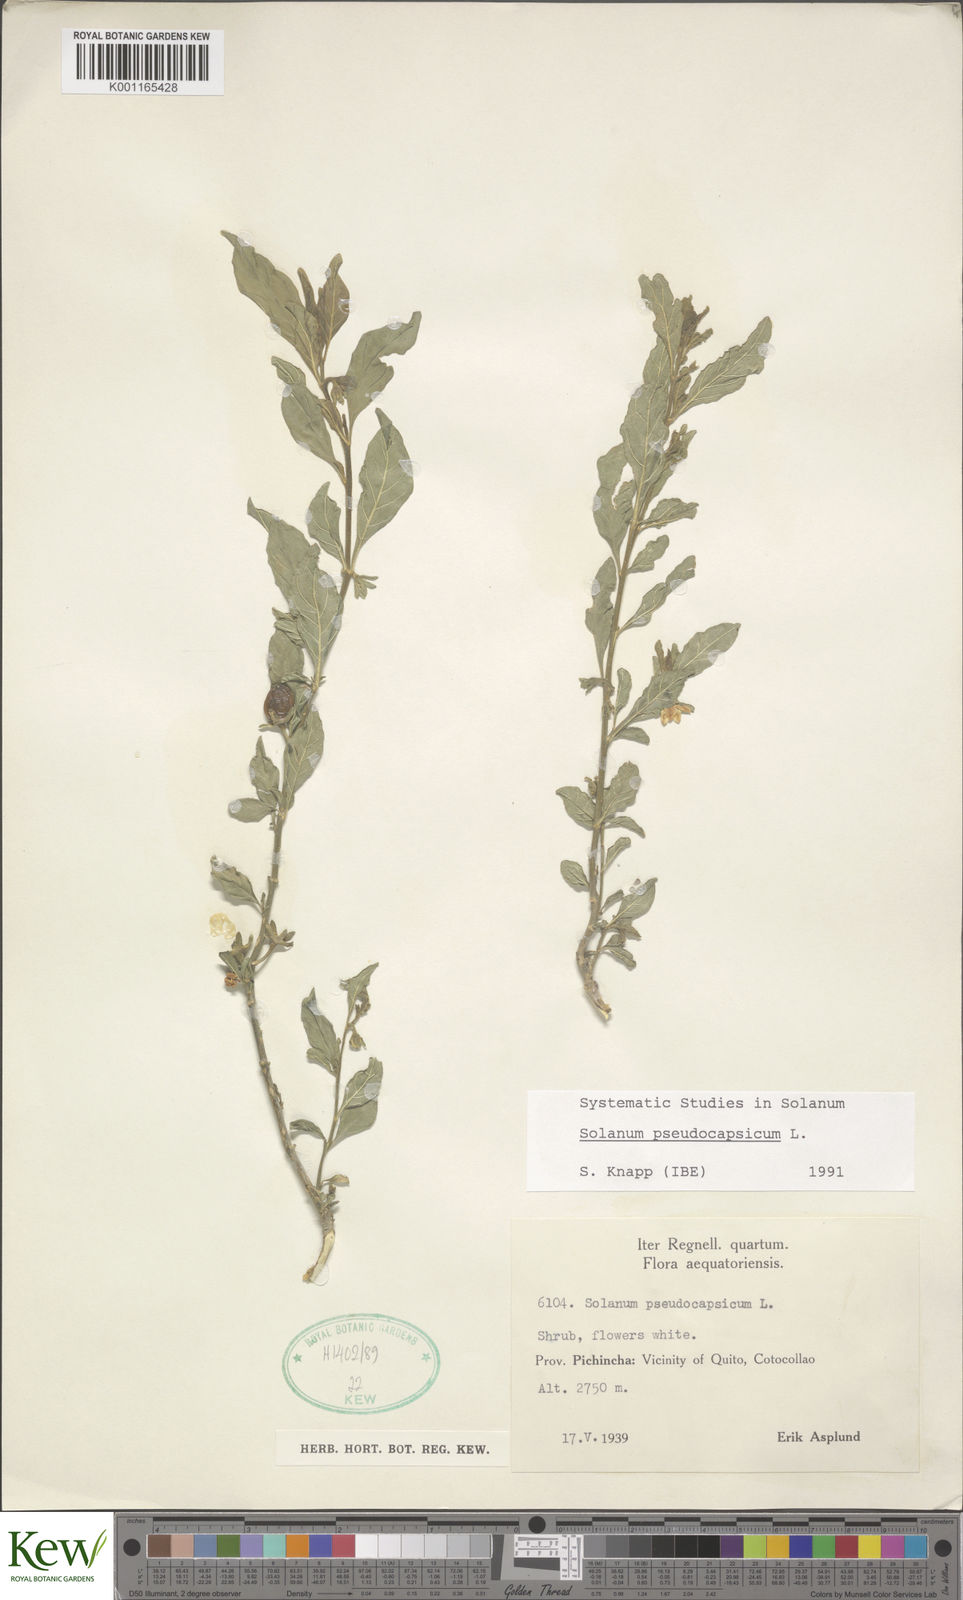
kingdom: Plantae
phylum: Tracheophyta
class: Magnoliopsida
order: Solanales
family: Solanaceae
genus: Solanum
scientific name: Solanum pseudocapsicum
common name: Jerusalem cherry
